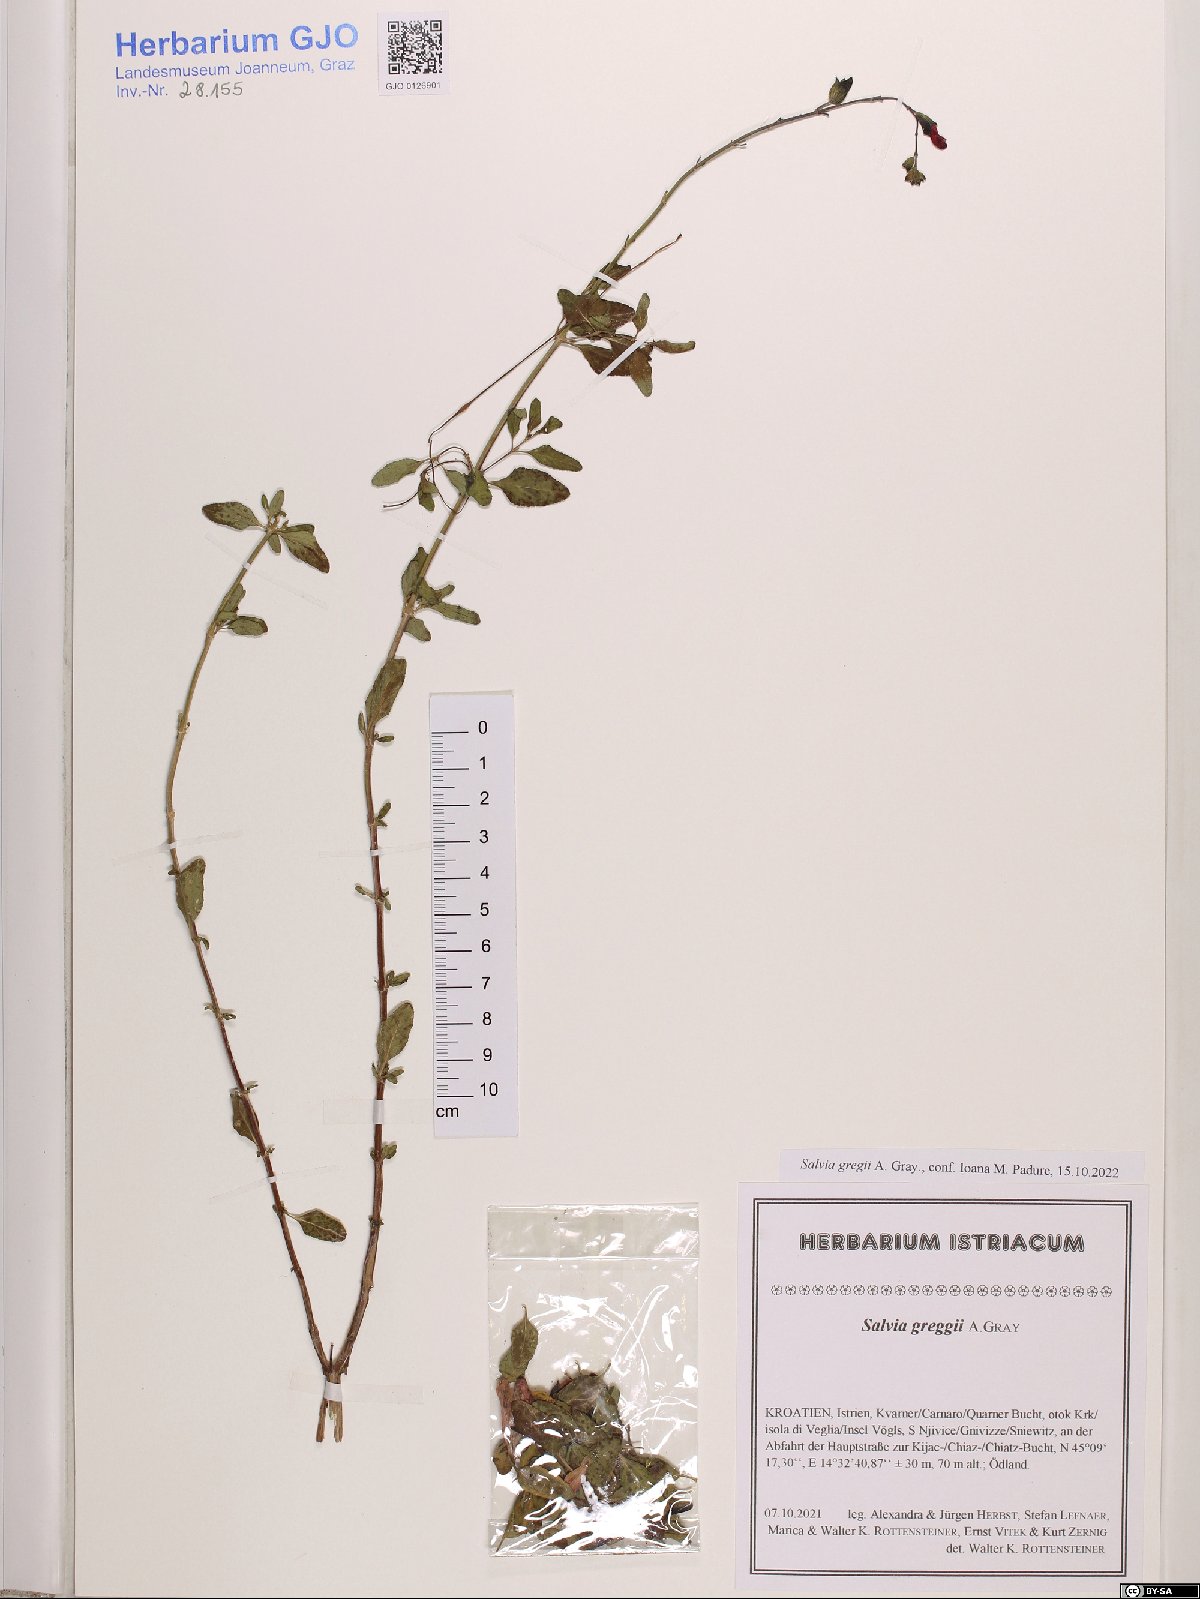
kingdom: Plantae
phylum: Tracheophyta
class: Magnoliopsida
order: Lamiales
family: Lamiaceae
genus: Salvia
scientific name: Salvia greggii
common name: Autumn sage
